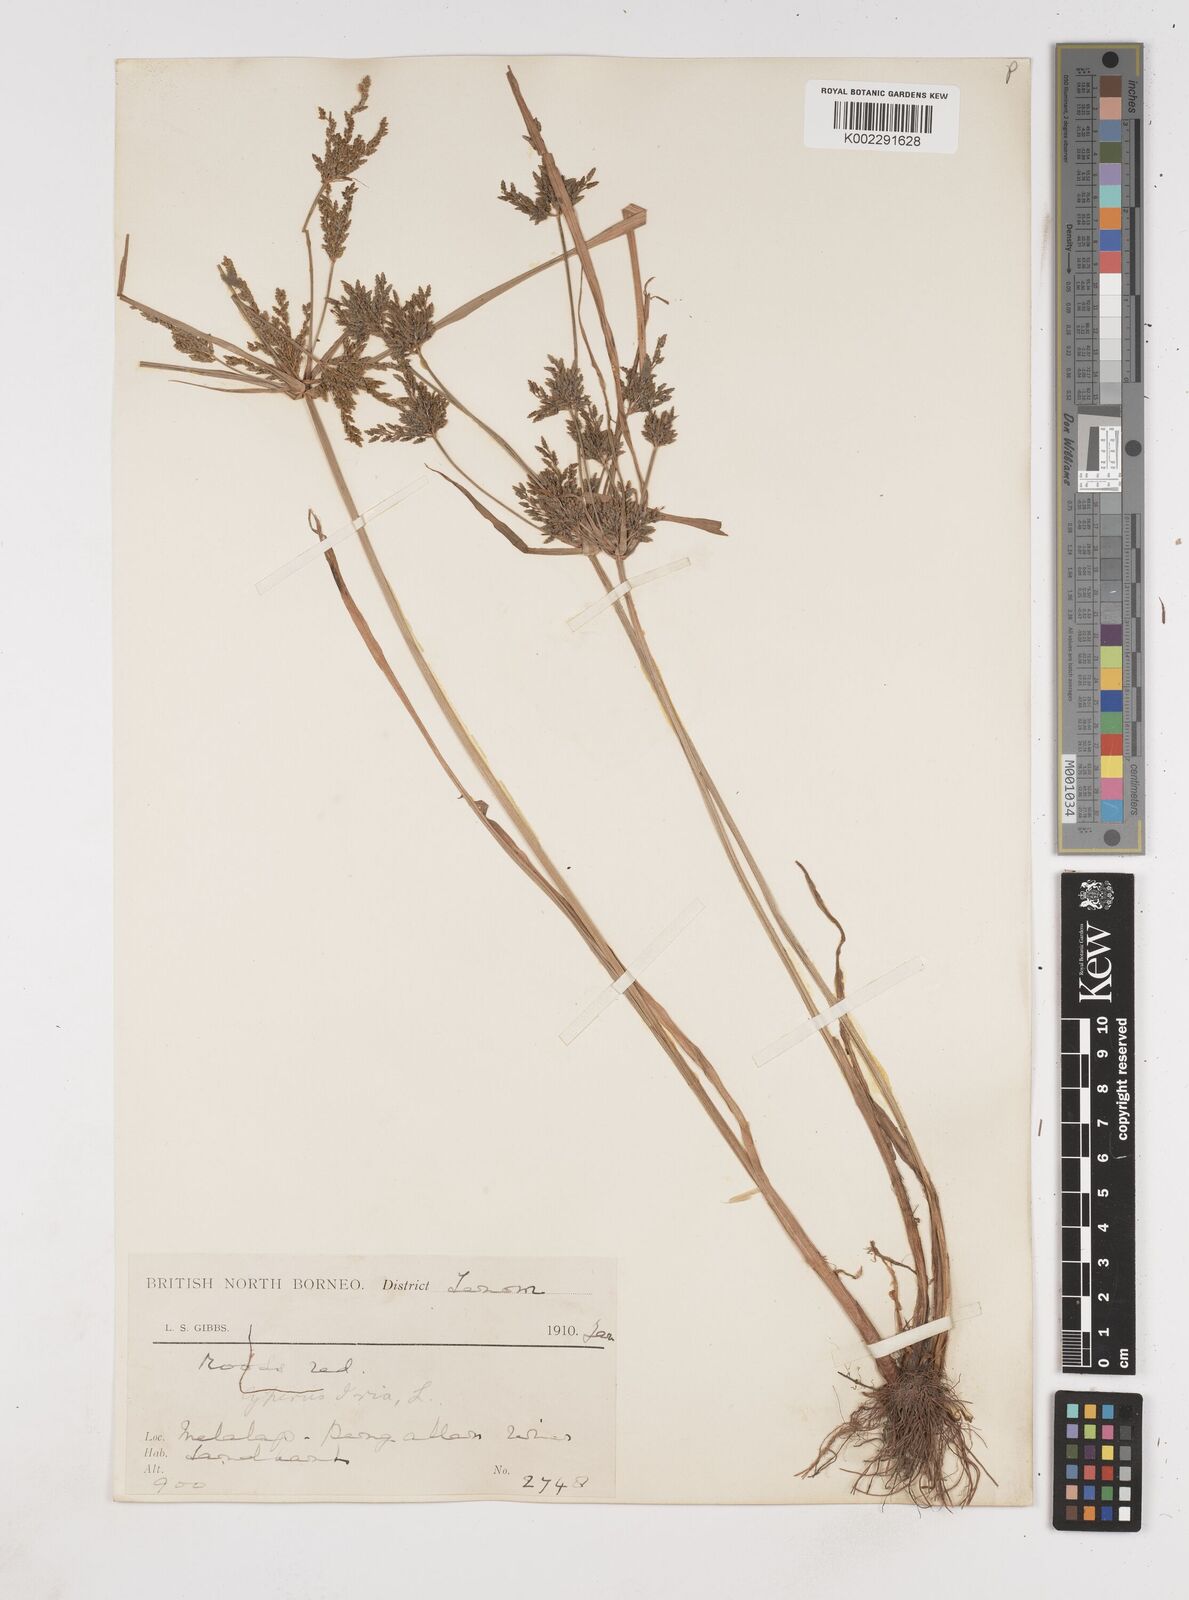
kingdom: Plantae
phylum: Tracheophyta
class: Liliopsida
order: Poales
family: Cyperaceae
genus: Cyperus
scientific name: Cyperus iria
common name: Ricefield flatsedge
